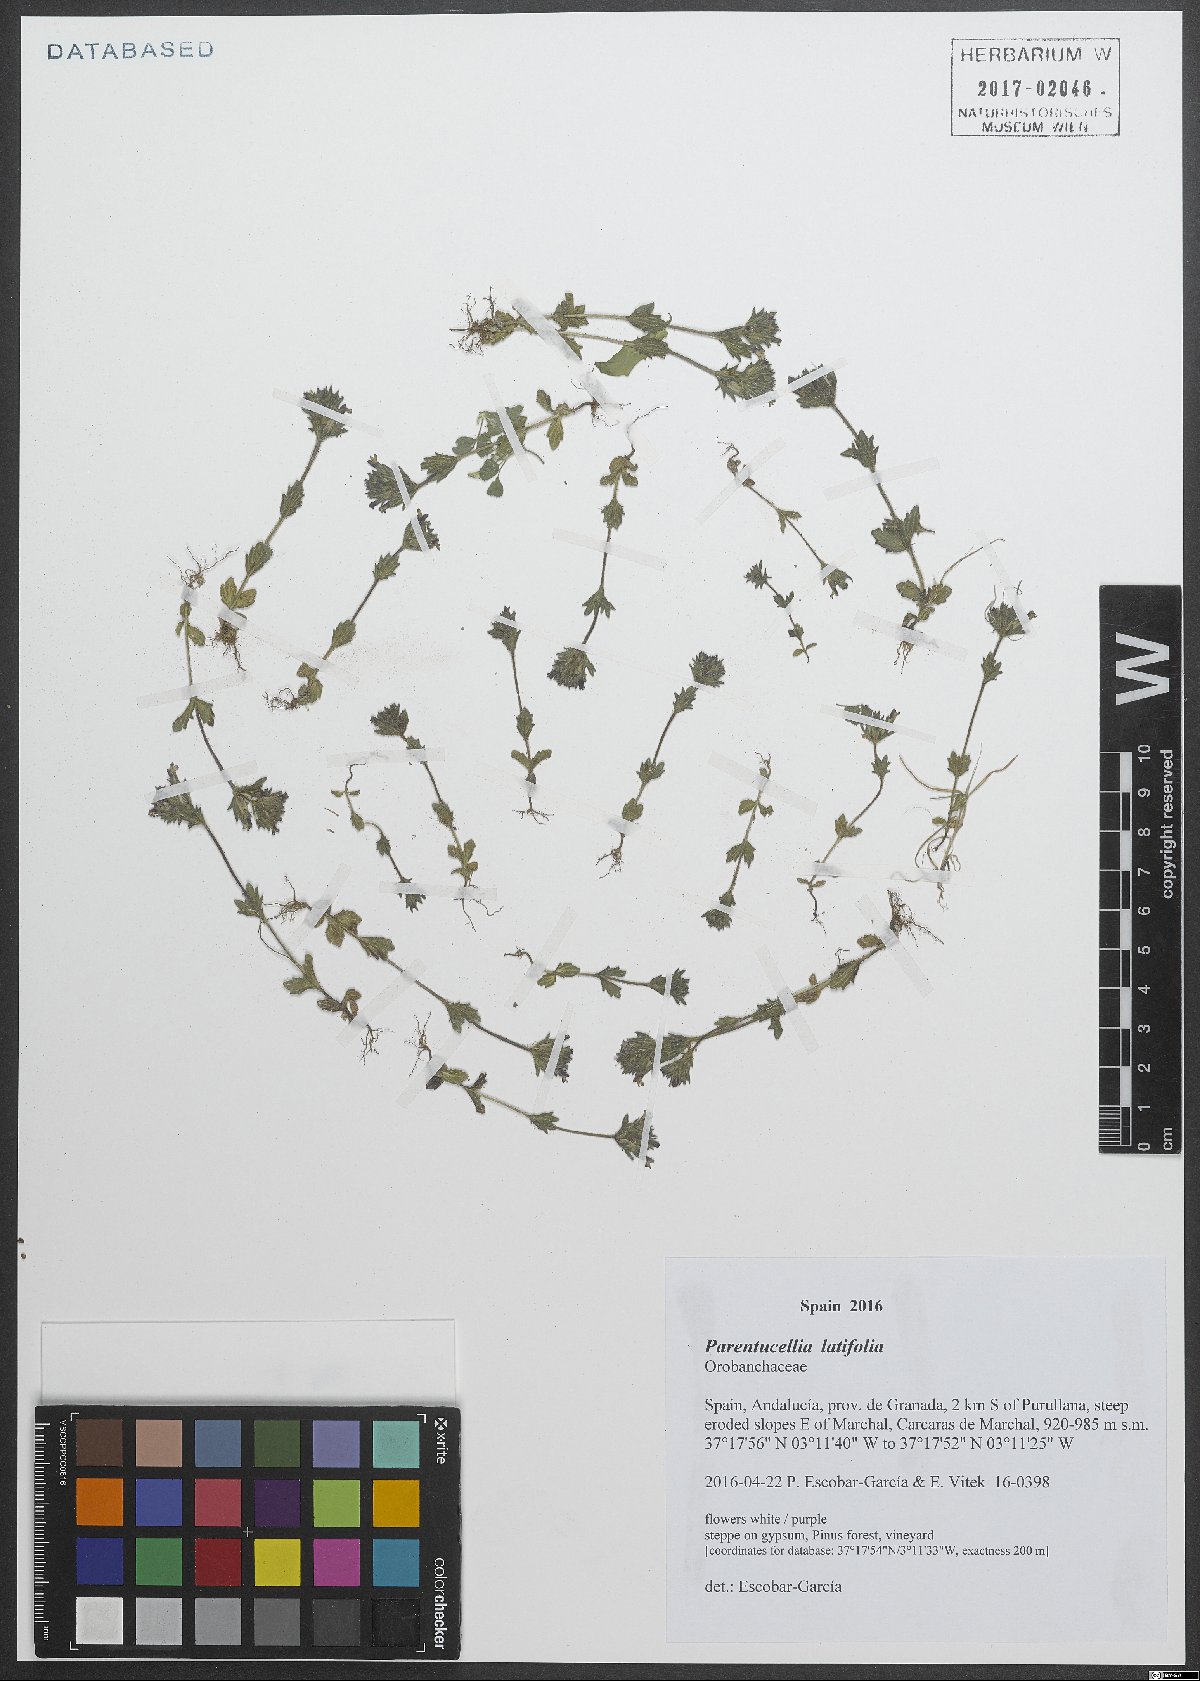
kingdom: Plantae
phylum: Tracheophyta
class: Magnoliopsida
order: Lamiales
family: Orobanchaceae
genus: Parentucellia
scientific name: Parentucellia latifolia
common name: Broadleaf glandweed
